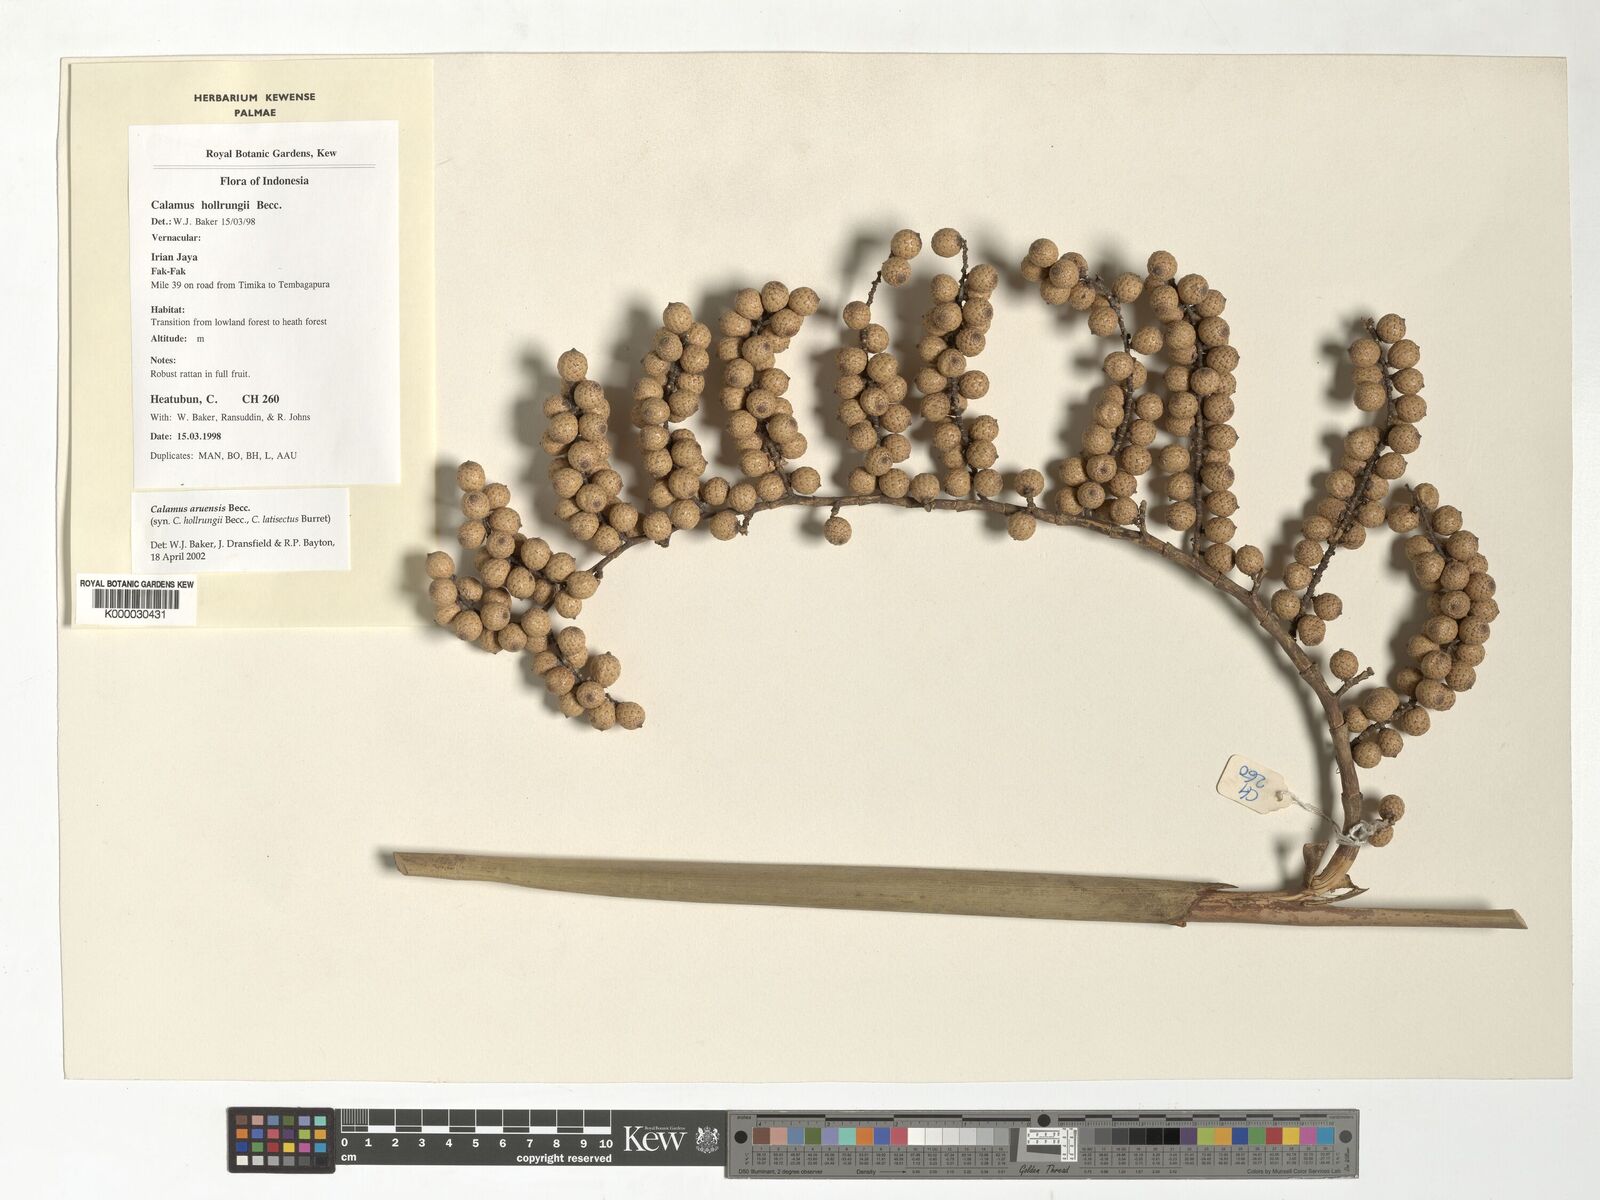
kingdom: Plantae
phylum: Tracheophyta
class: Liliopsida
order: Arecales
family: Arecaceae
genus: Calamus
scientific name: Calamus aruensis
